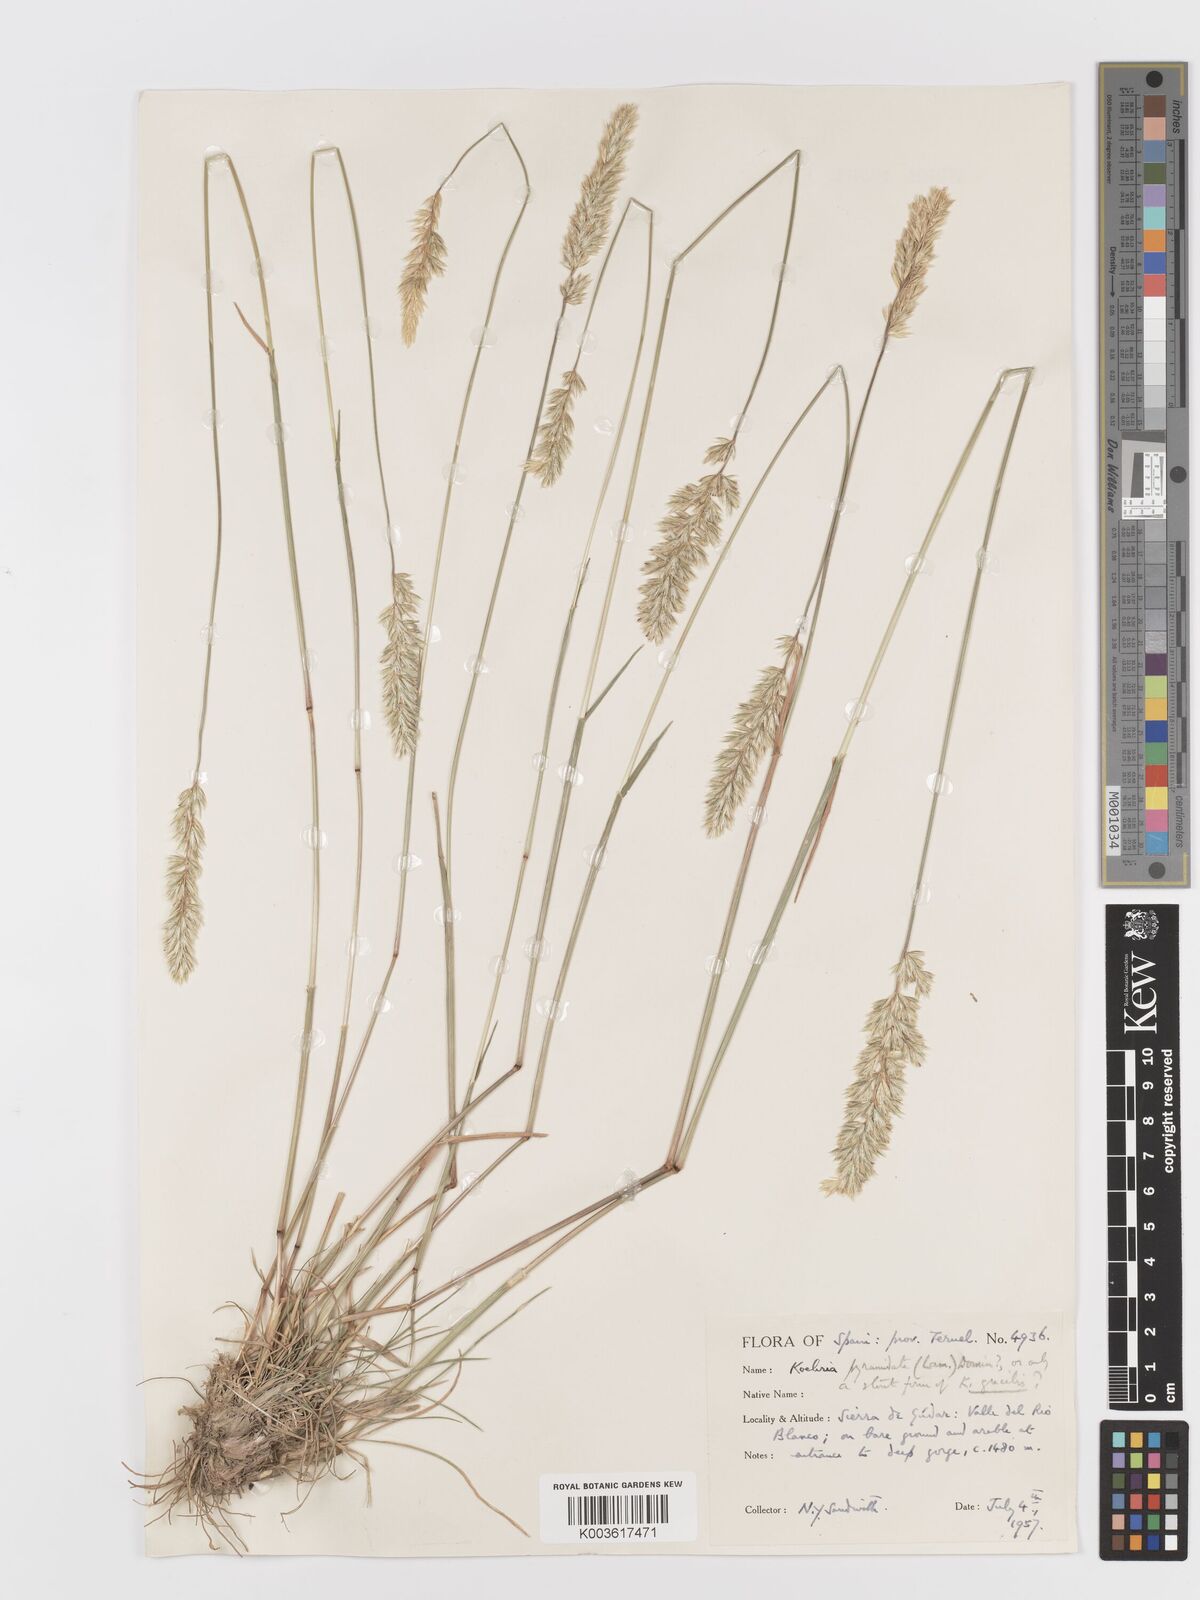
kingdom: Plantae
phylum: Tracheophyta
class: Liliopsida
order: Poales
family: Poaceae
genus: Koeleria
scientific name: Koeleria pyramidata
